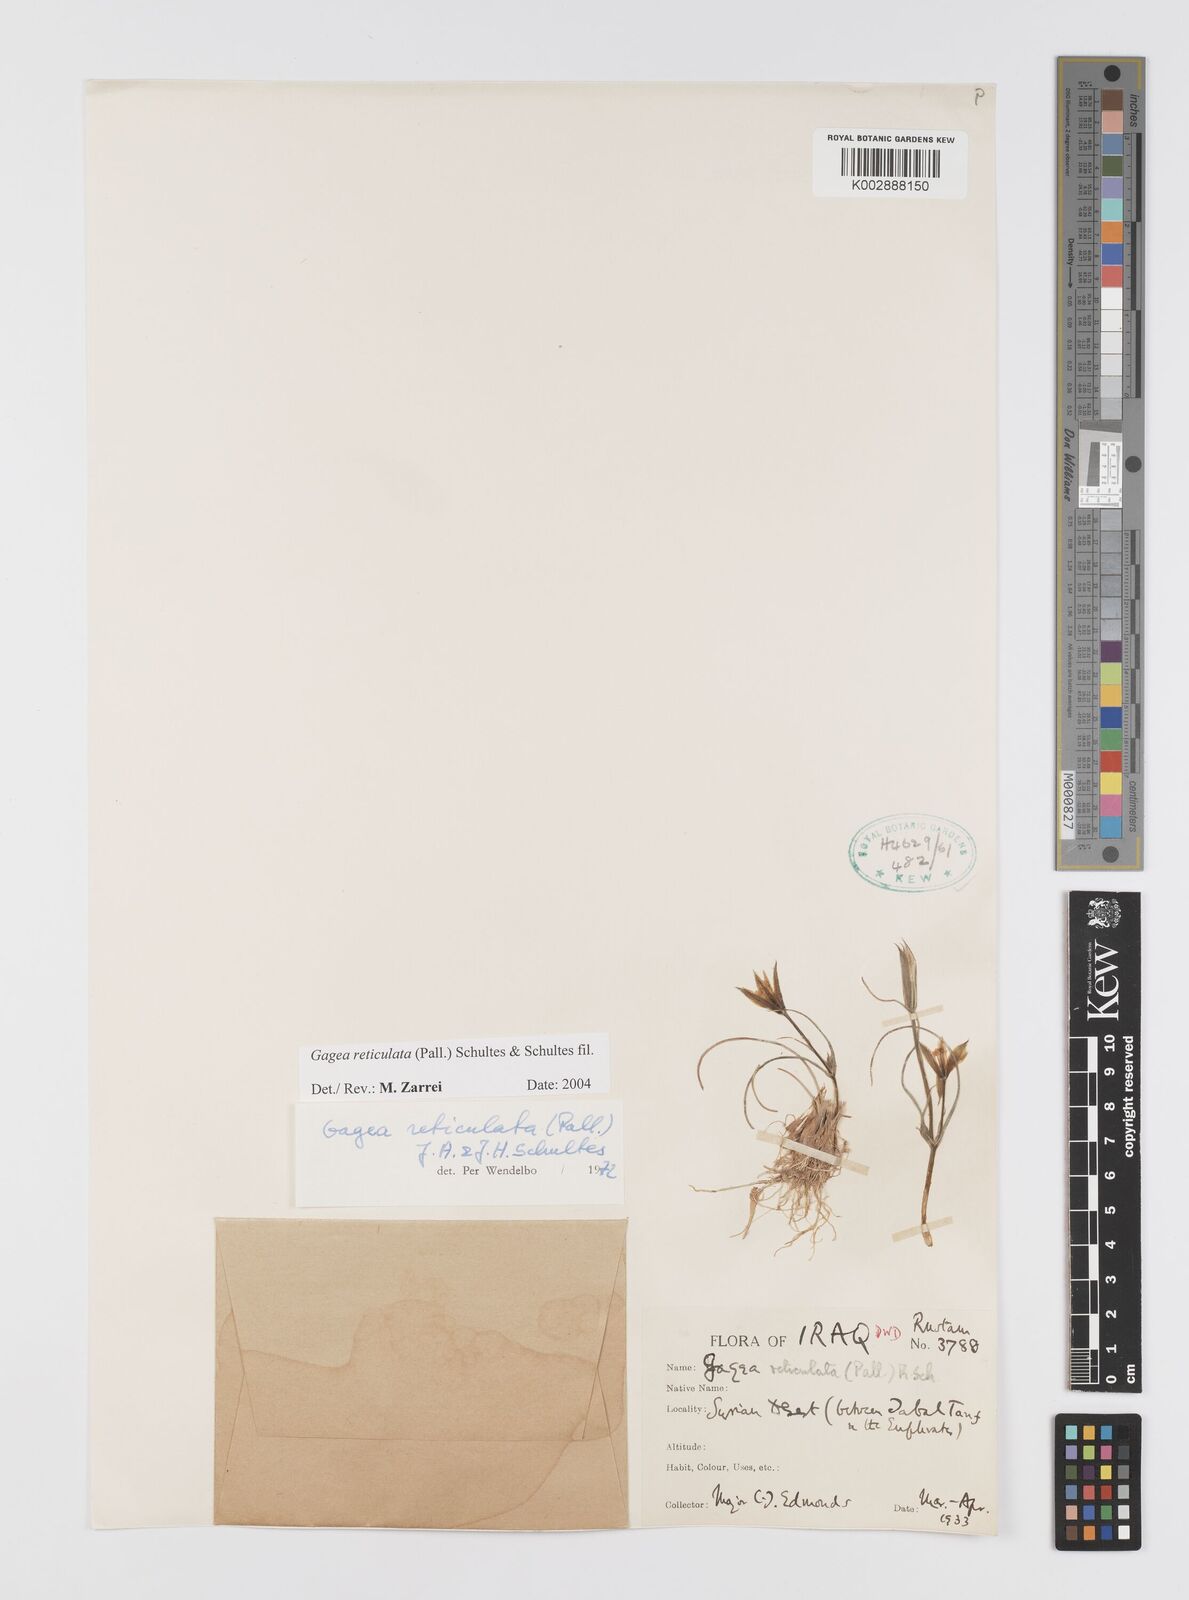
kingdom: Plantae
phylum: Tracheophyta
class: Liliopsida
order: Liliales
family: Liliaceae
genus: Gagea
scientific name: Gagea reticulata
